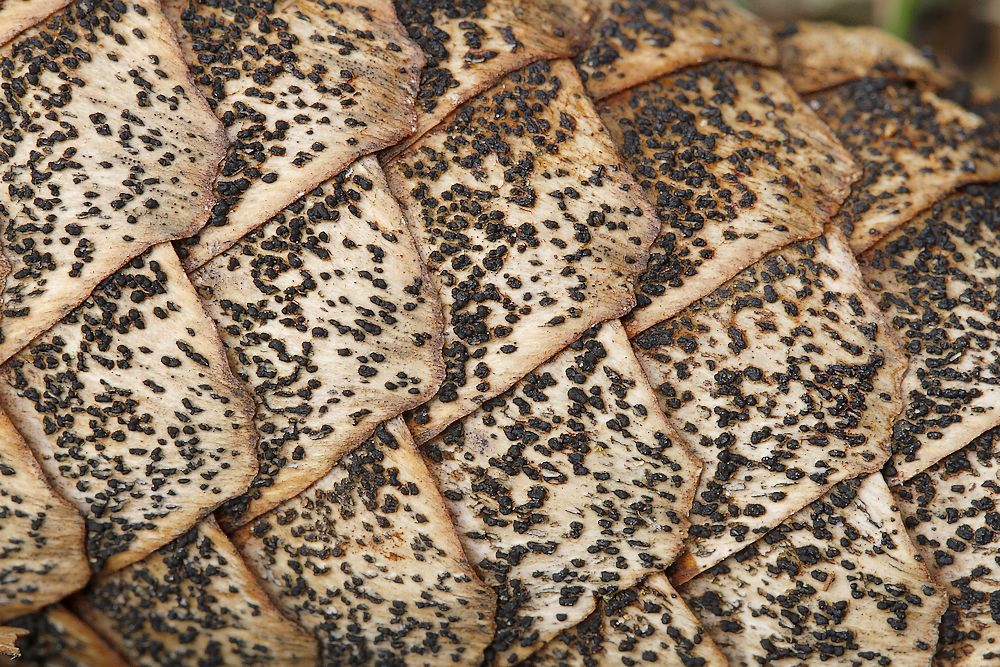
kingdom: Fungi
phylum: Ascomycota
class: Sordariomycetes
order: Diaporthales
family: Gnomoniaceae
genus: Sirococcus
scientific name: Sirococcus conigenus
